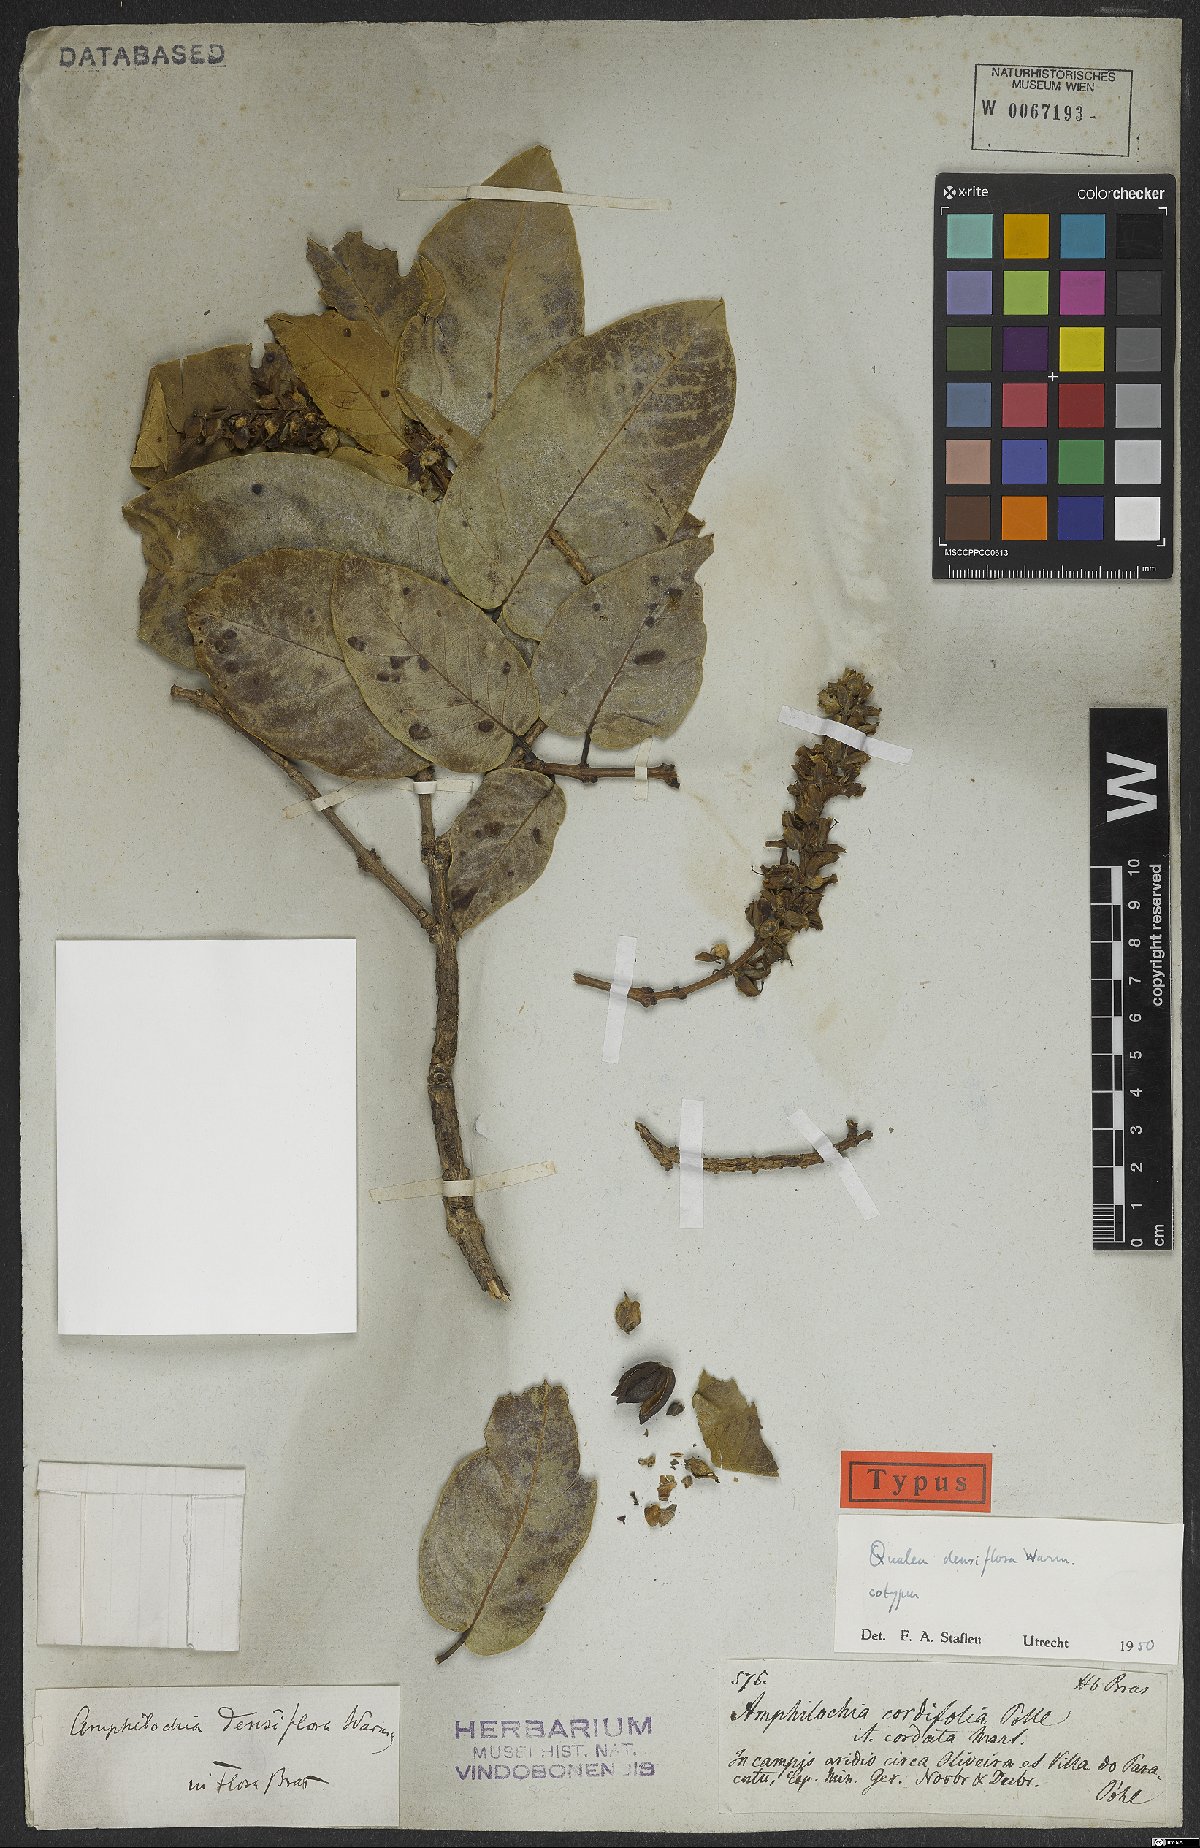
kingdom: Plantae
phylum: Tracheophyta
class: Magnoliopsida
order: Myrtales
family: Vochysiaceae
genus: Qualea
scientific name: Qualea densiflora
